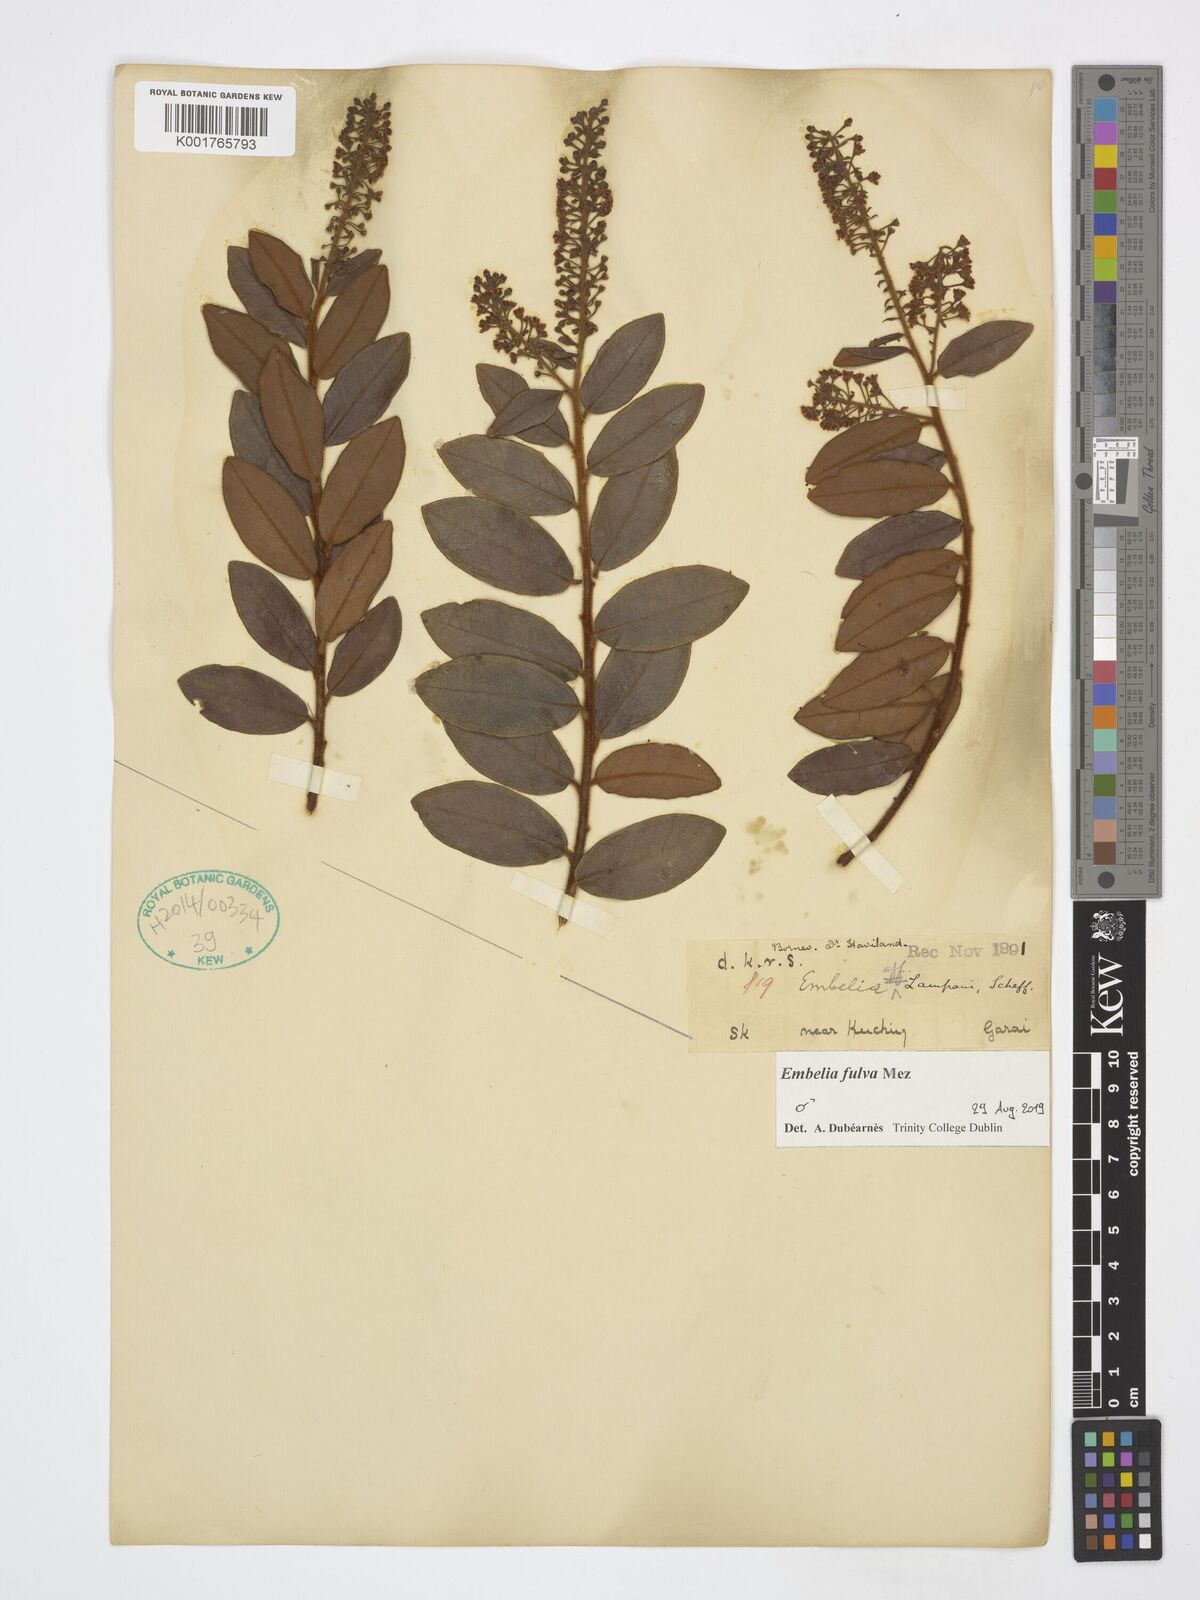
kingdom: Plantae
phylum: Tracheophyta
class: Magnoliopsida
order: Ericales
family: Primulaceae
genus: Grenacheria
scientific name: Grenacheria fulva
